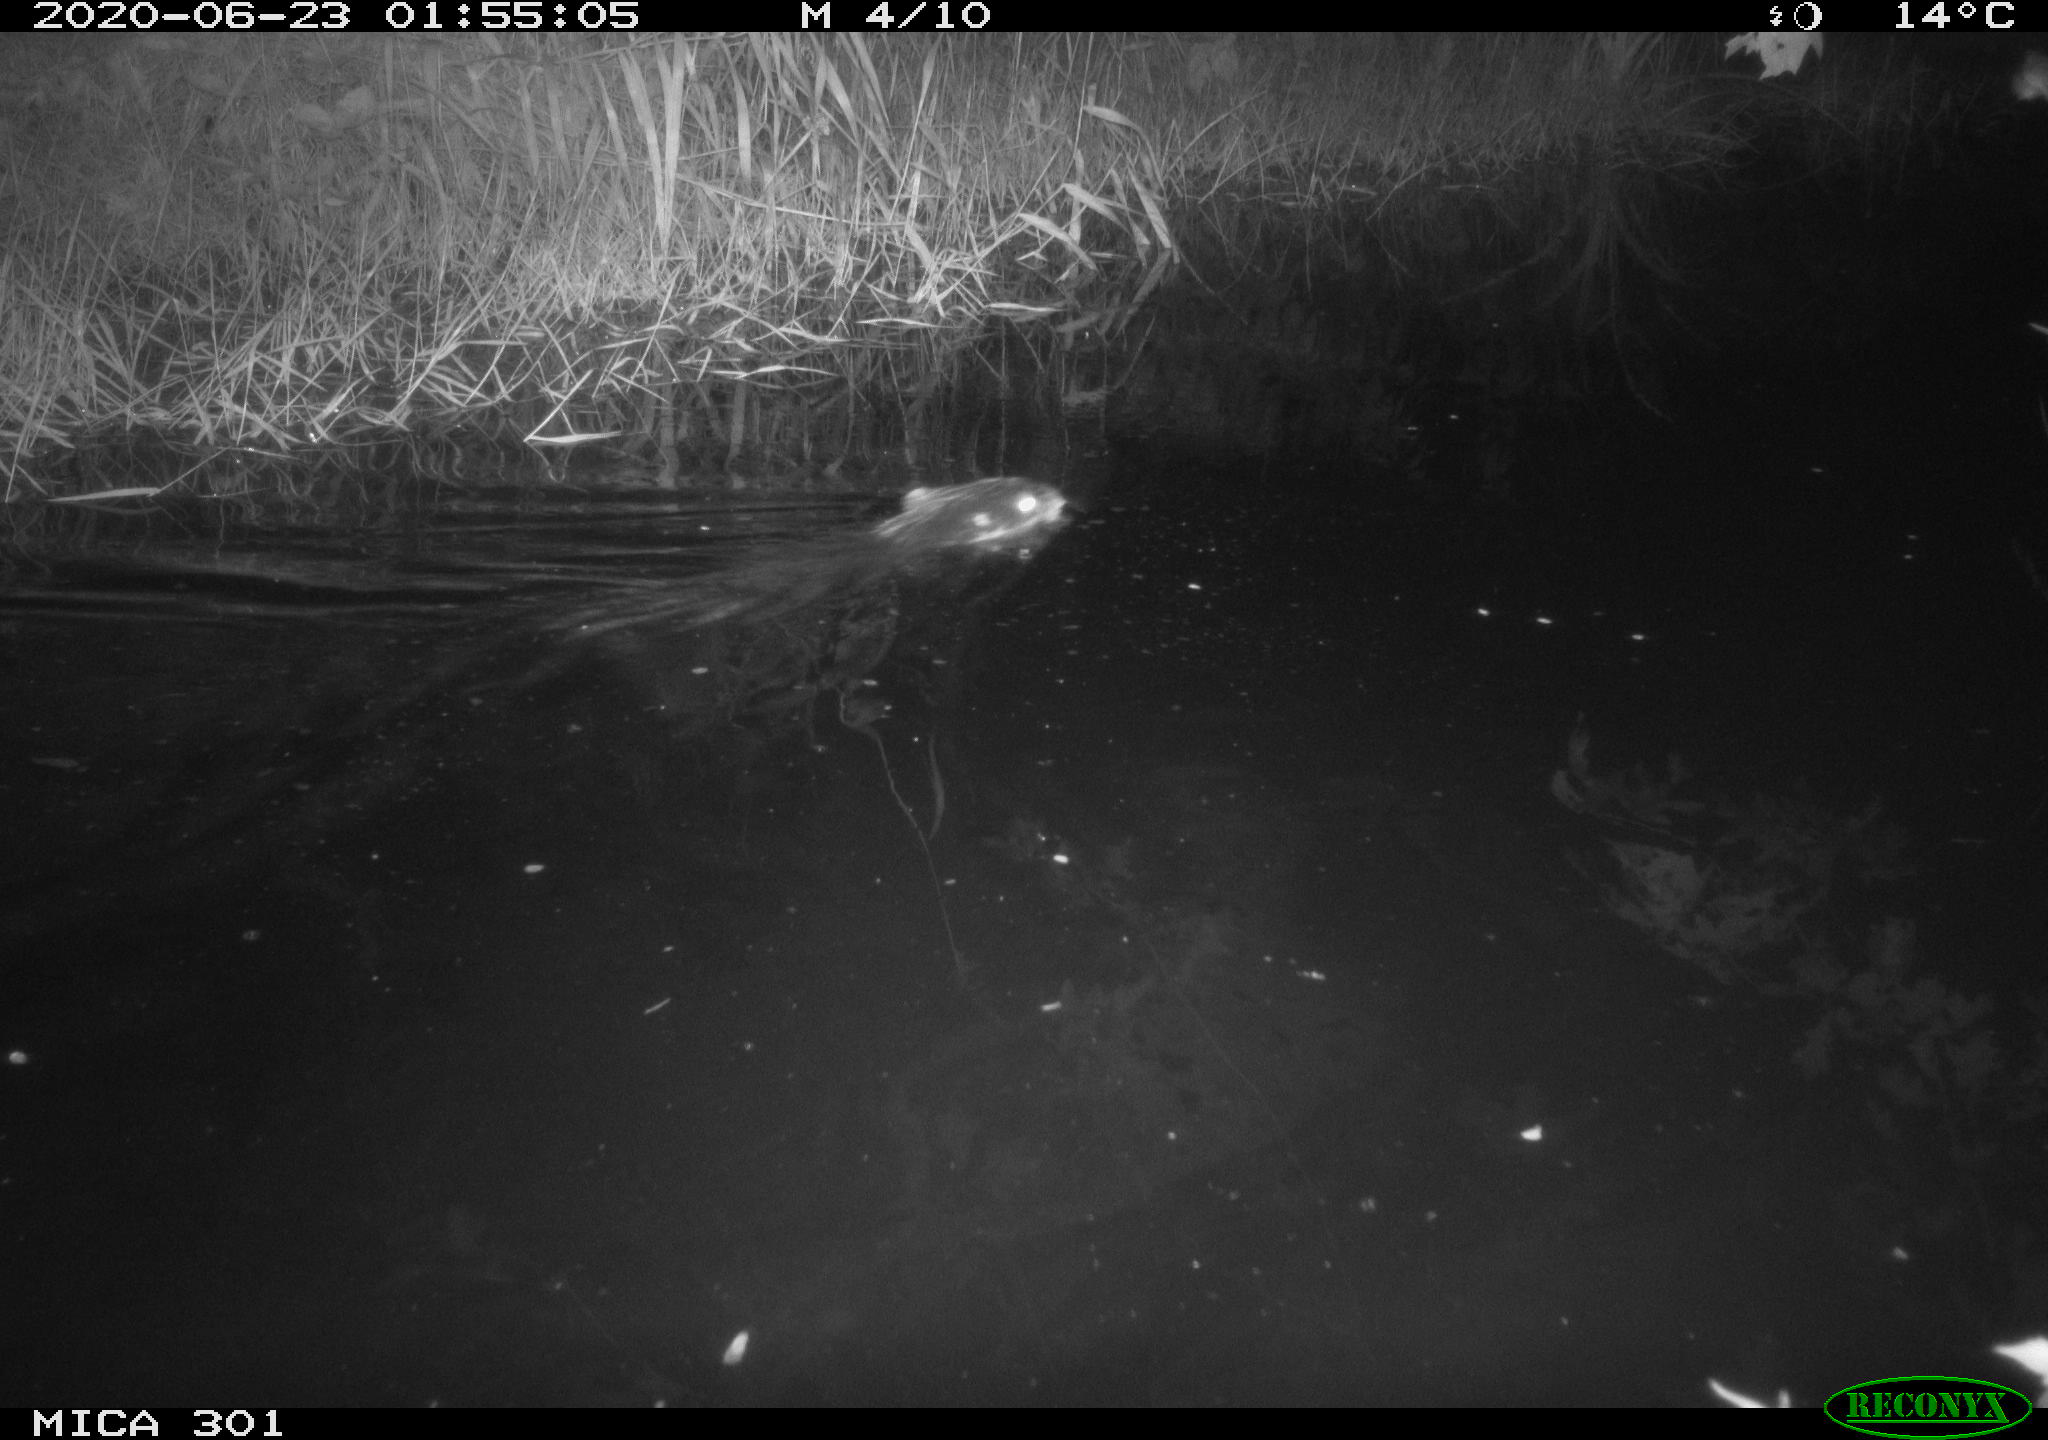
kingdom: Animalia
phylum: Chordata
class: Mammalia
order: Rodentia
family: Castoridae
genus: Castor
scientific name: Castor fiber
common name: Eurasian beaver
